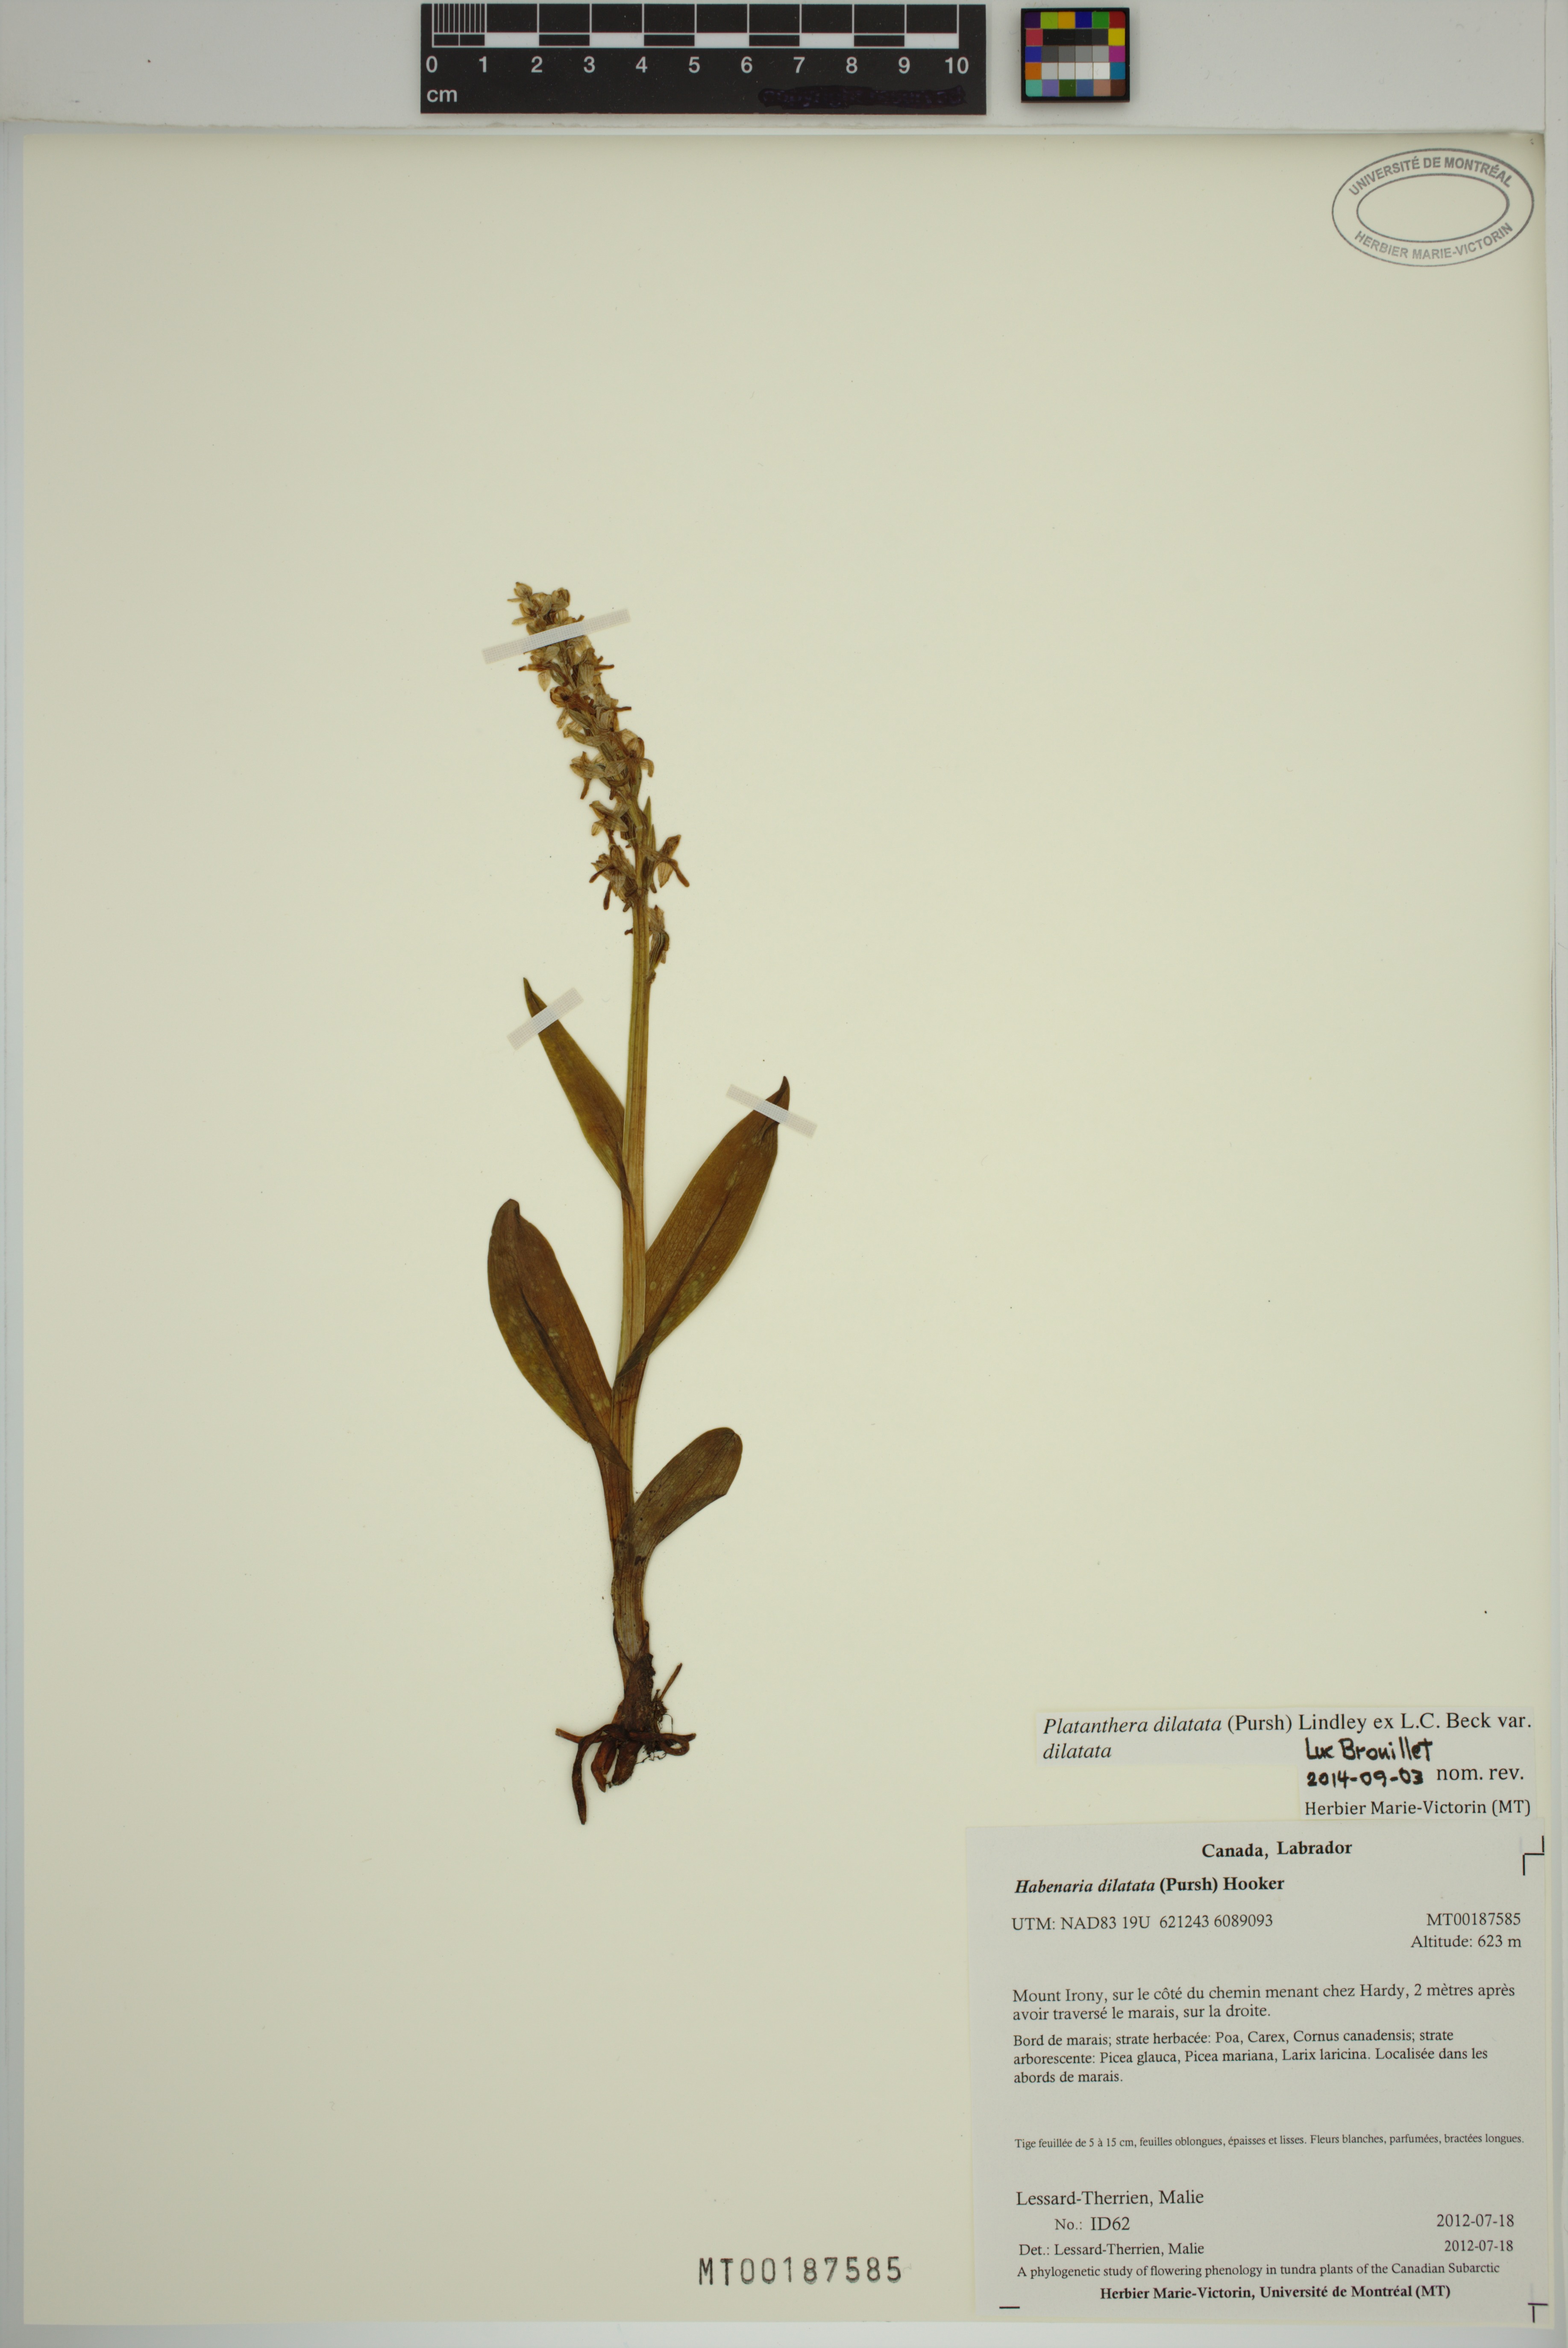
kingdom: Plantae
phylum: Tracheophyta
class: Liliopsida
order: Asparagales
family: Orchidaceae
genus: Platanthera
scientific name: Platanthera dilatata
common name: Bog candles
